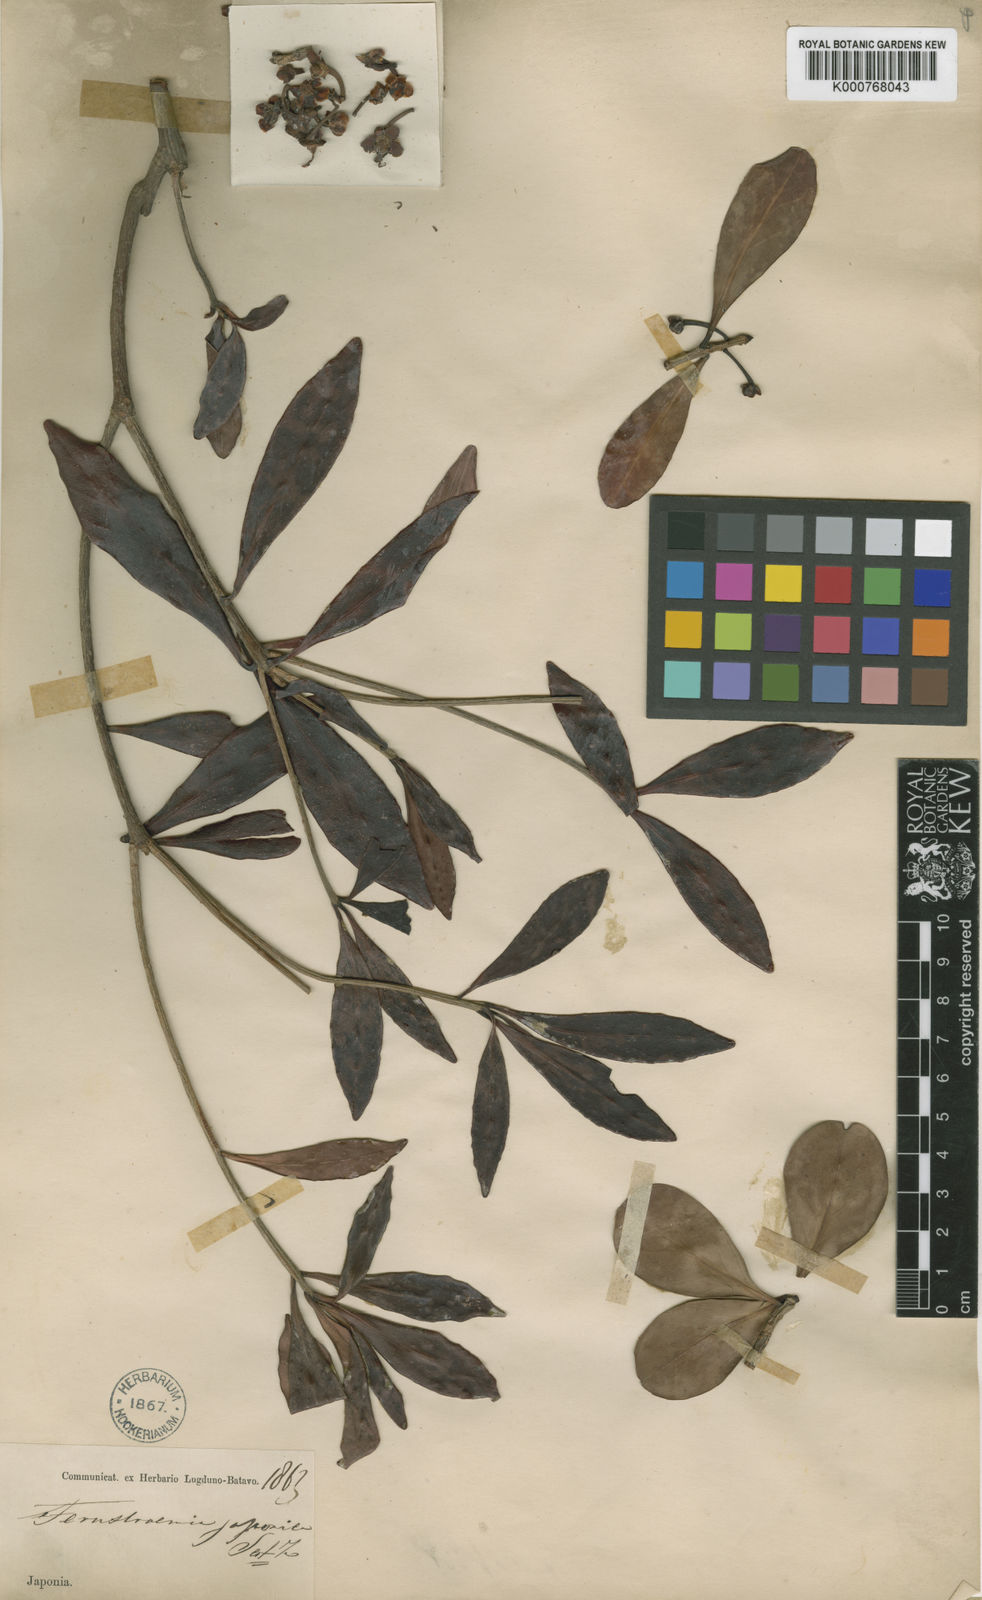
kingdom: Plantae
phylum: Tracheophyta
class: Magnoliopsida
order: Ericales
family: Pentaphylacaceae
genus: Ternstroemia
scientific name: Ternstroemia
